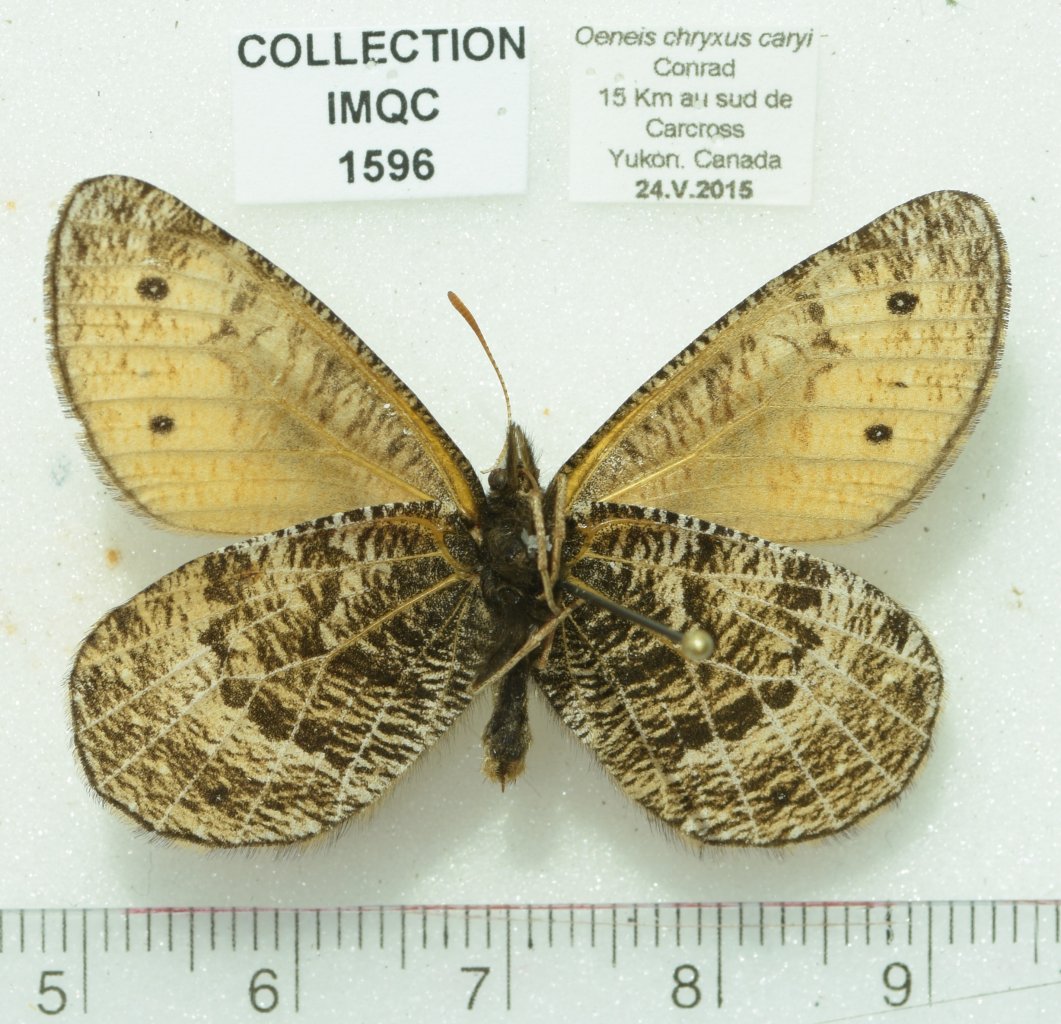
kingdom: Animalia
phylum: Arthropoda
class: Insecta
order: Lepidoptera
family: Nymphalidae
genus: Oeneis
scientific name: Oeneis chryxus
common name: Chryxus Arctic
